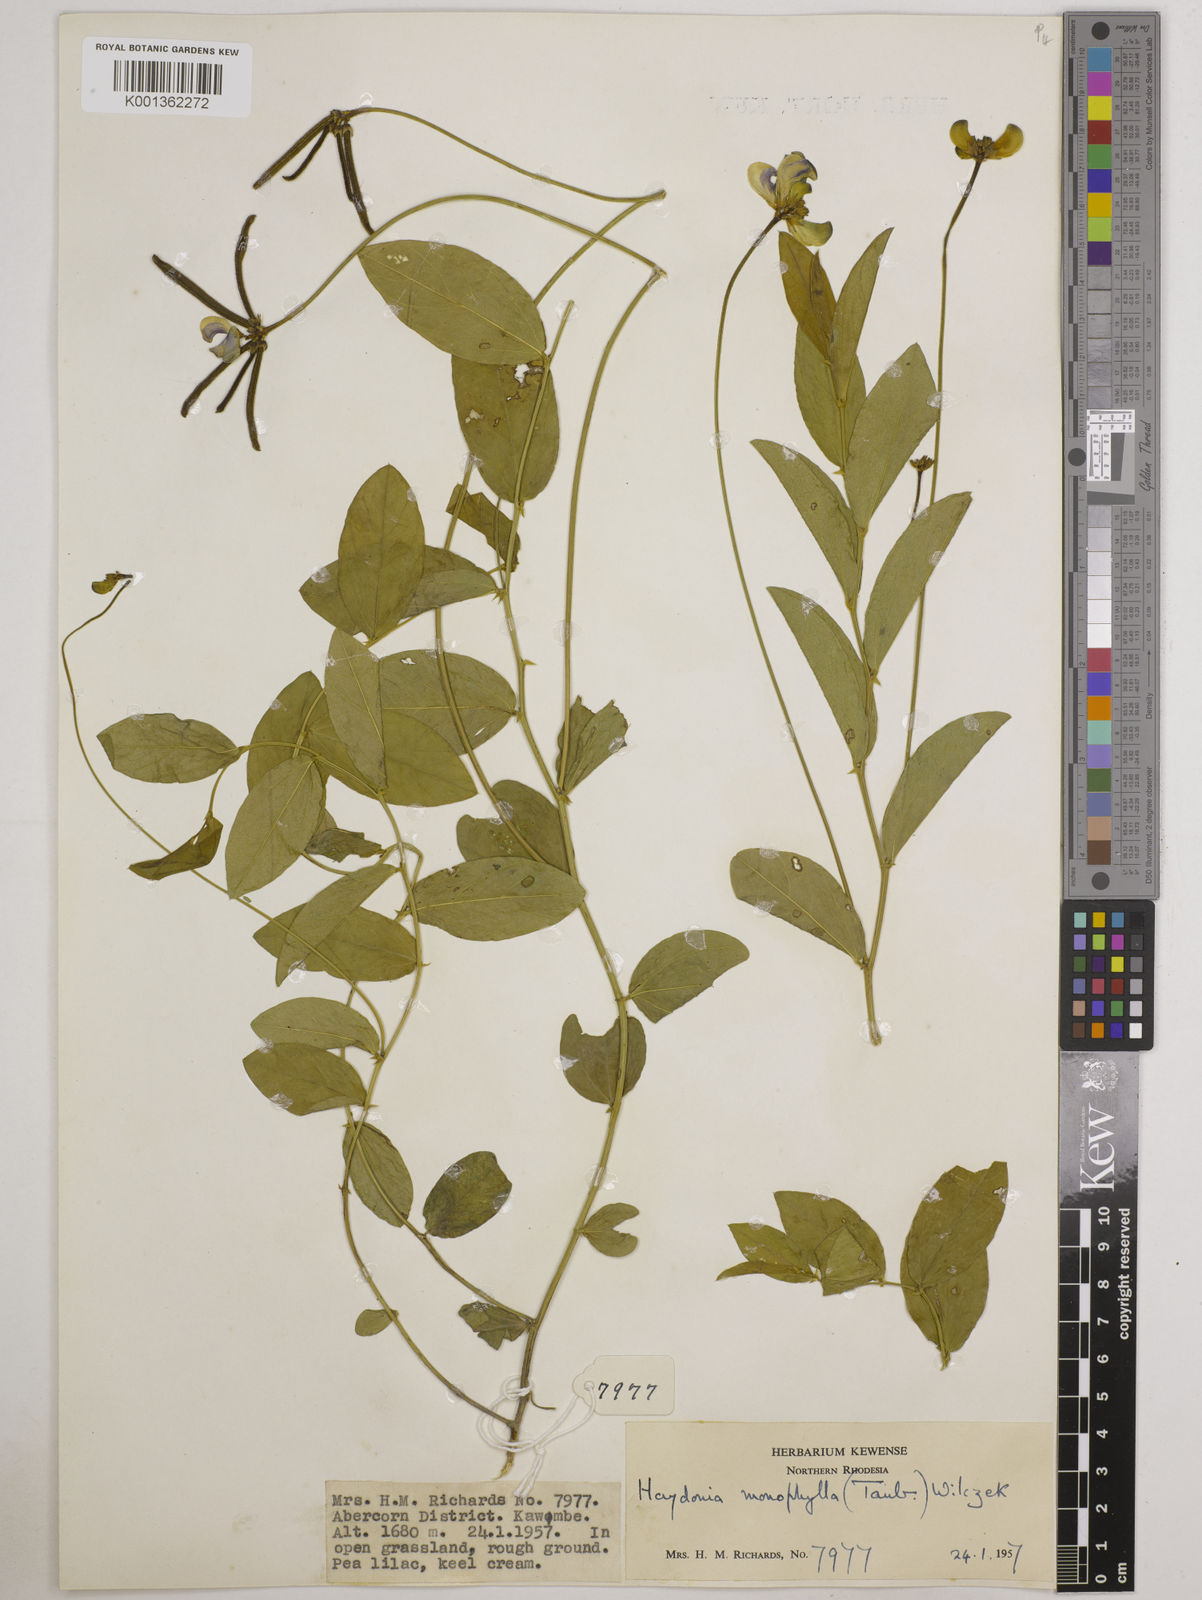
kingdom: Plantae
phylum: Tracheophyta
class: Magnoliopsida
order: Fabales
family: Fabaceae
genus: Vigna
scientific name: Vigna monophylla
